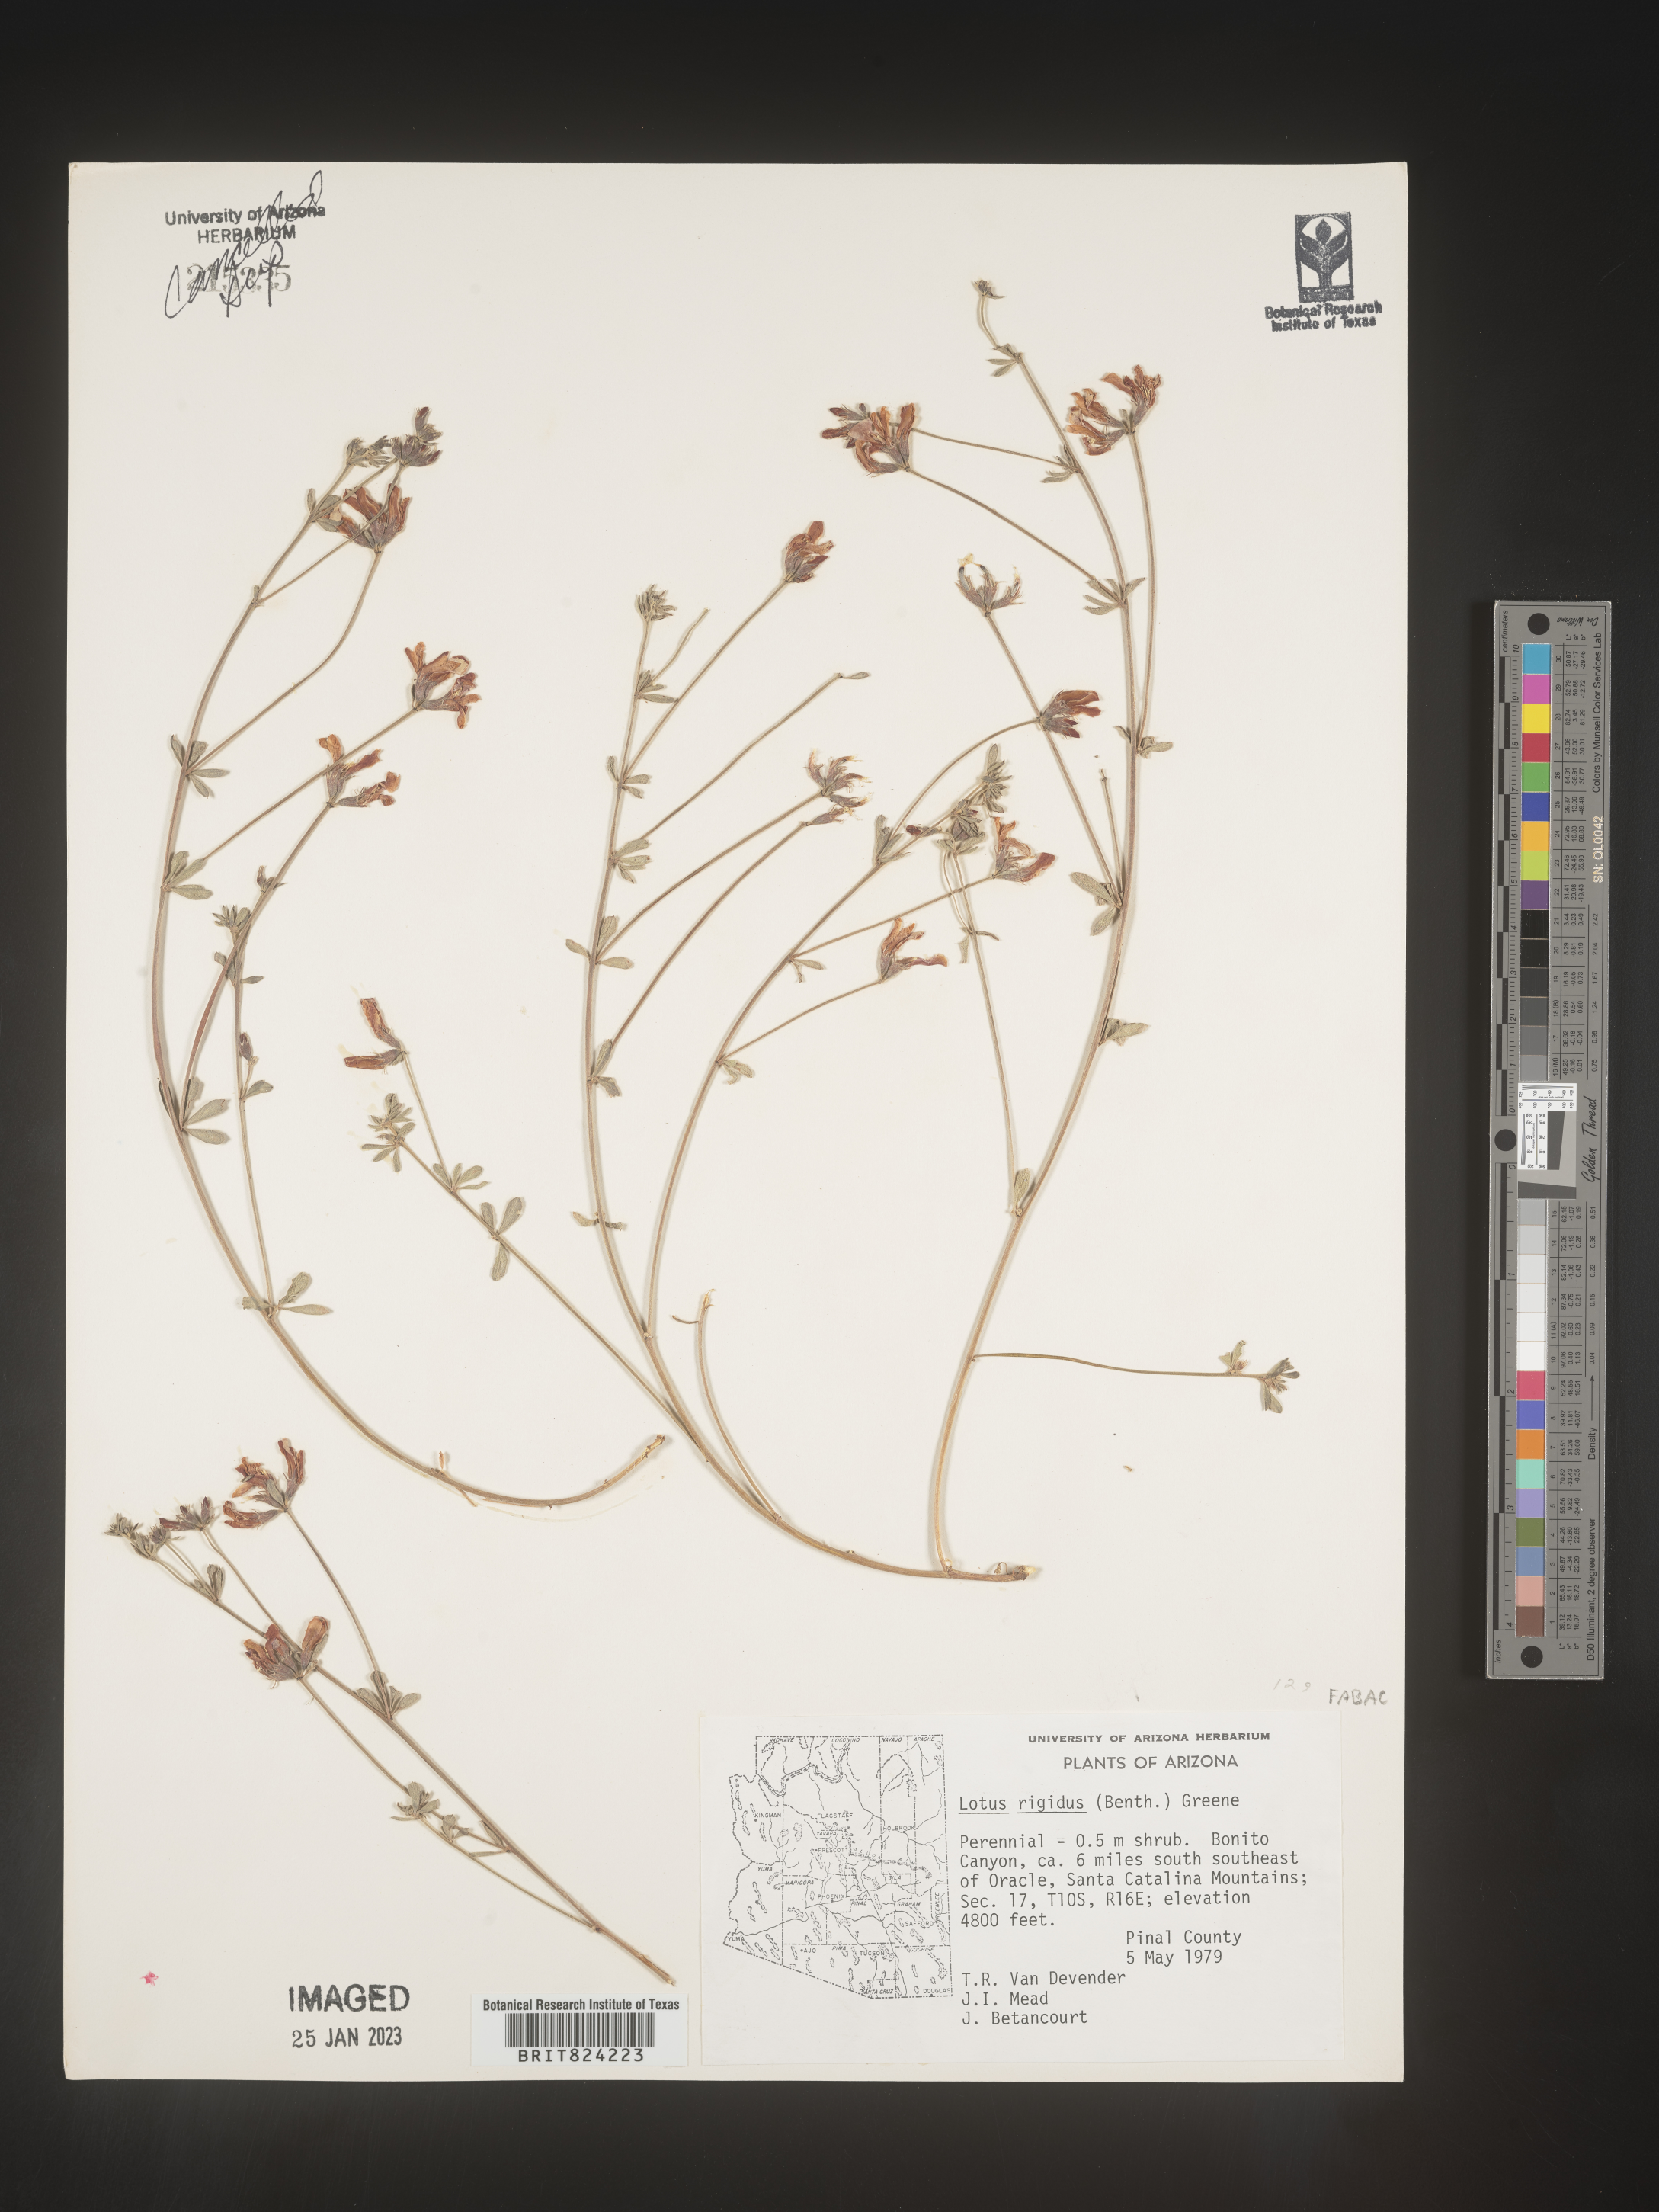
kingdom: Plantae
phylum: Tracheophyta
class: Magnoliopsida
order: Fabales
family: Fabaceae
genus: Lotus
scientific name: Lotus
